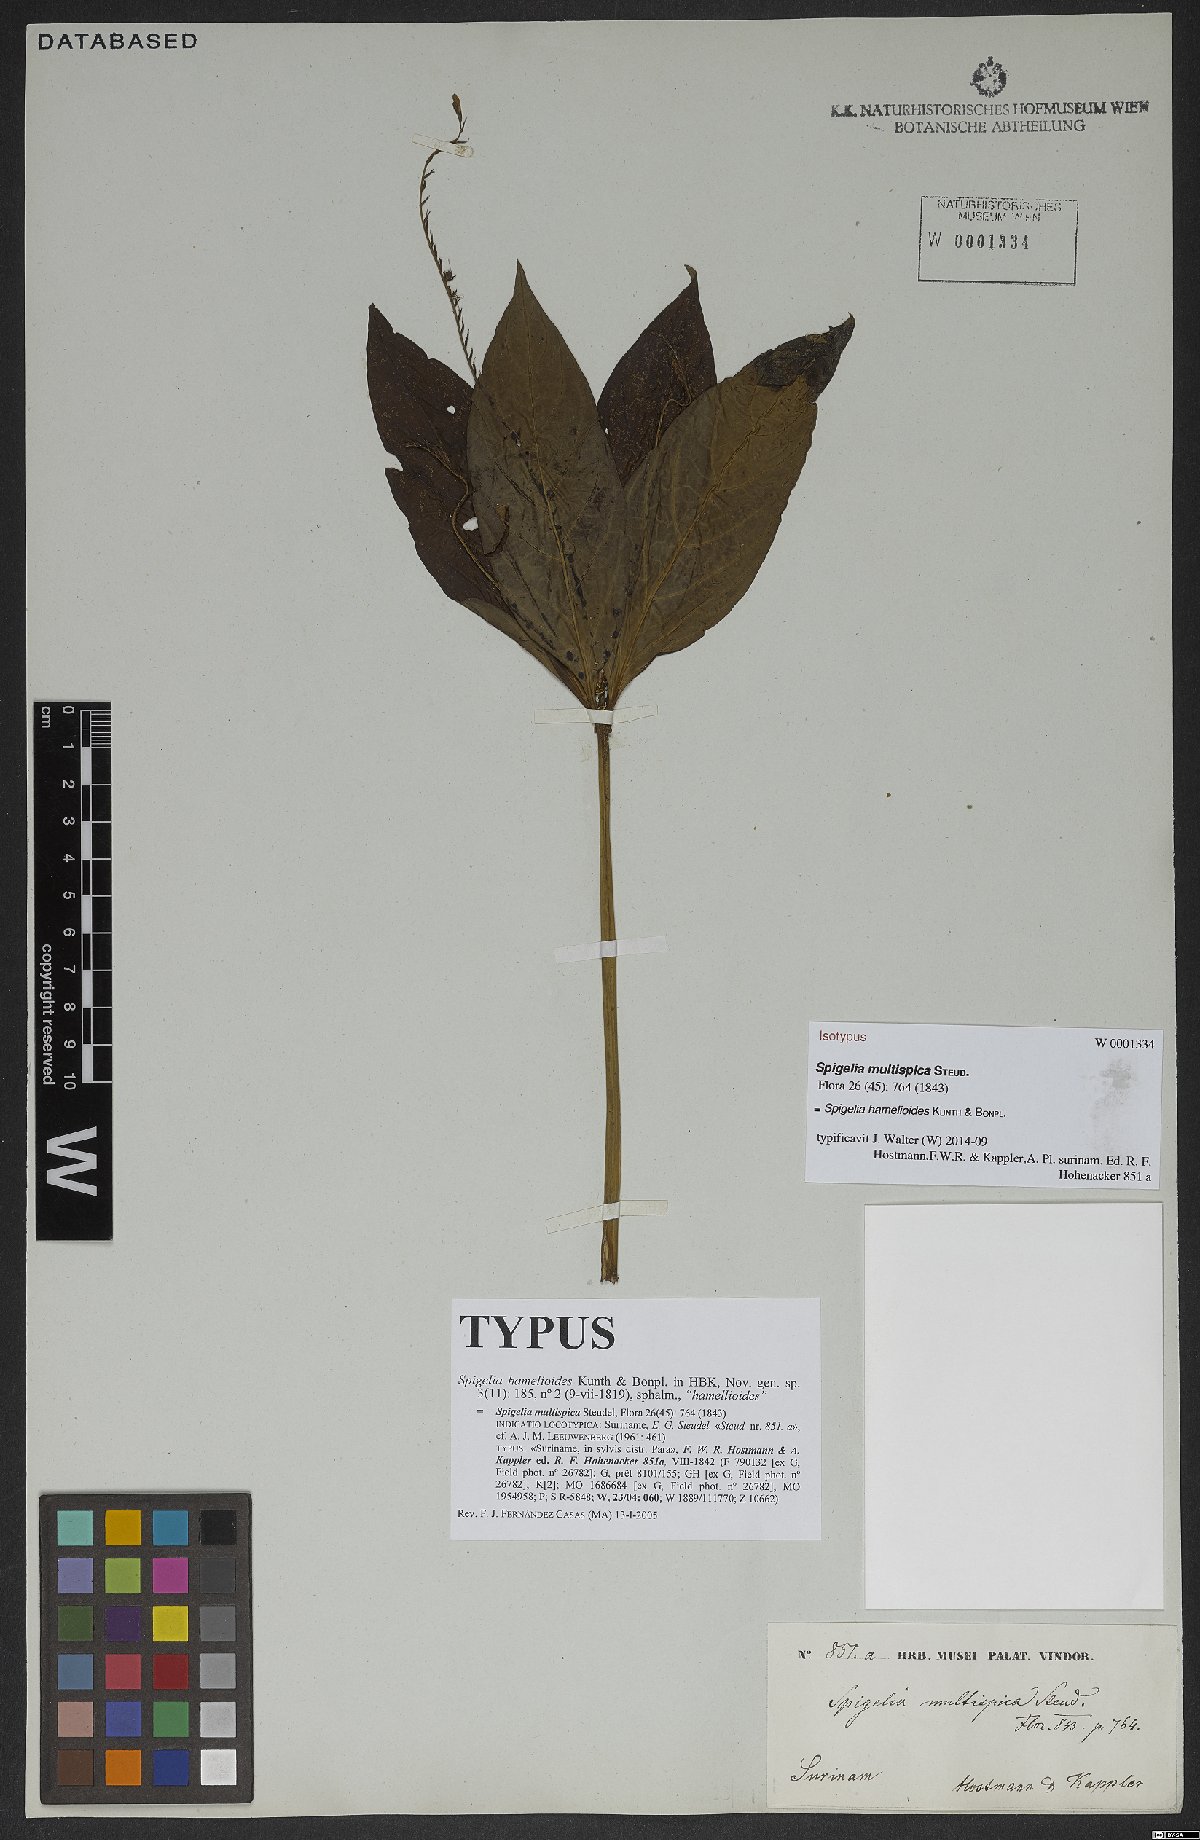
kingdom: Plantae
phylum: Tracheophyta
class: Magnoliopsida
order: Gentianales
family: Loganiaceae
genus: Spigelia
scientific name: Spigelia hamellioides
